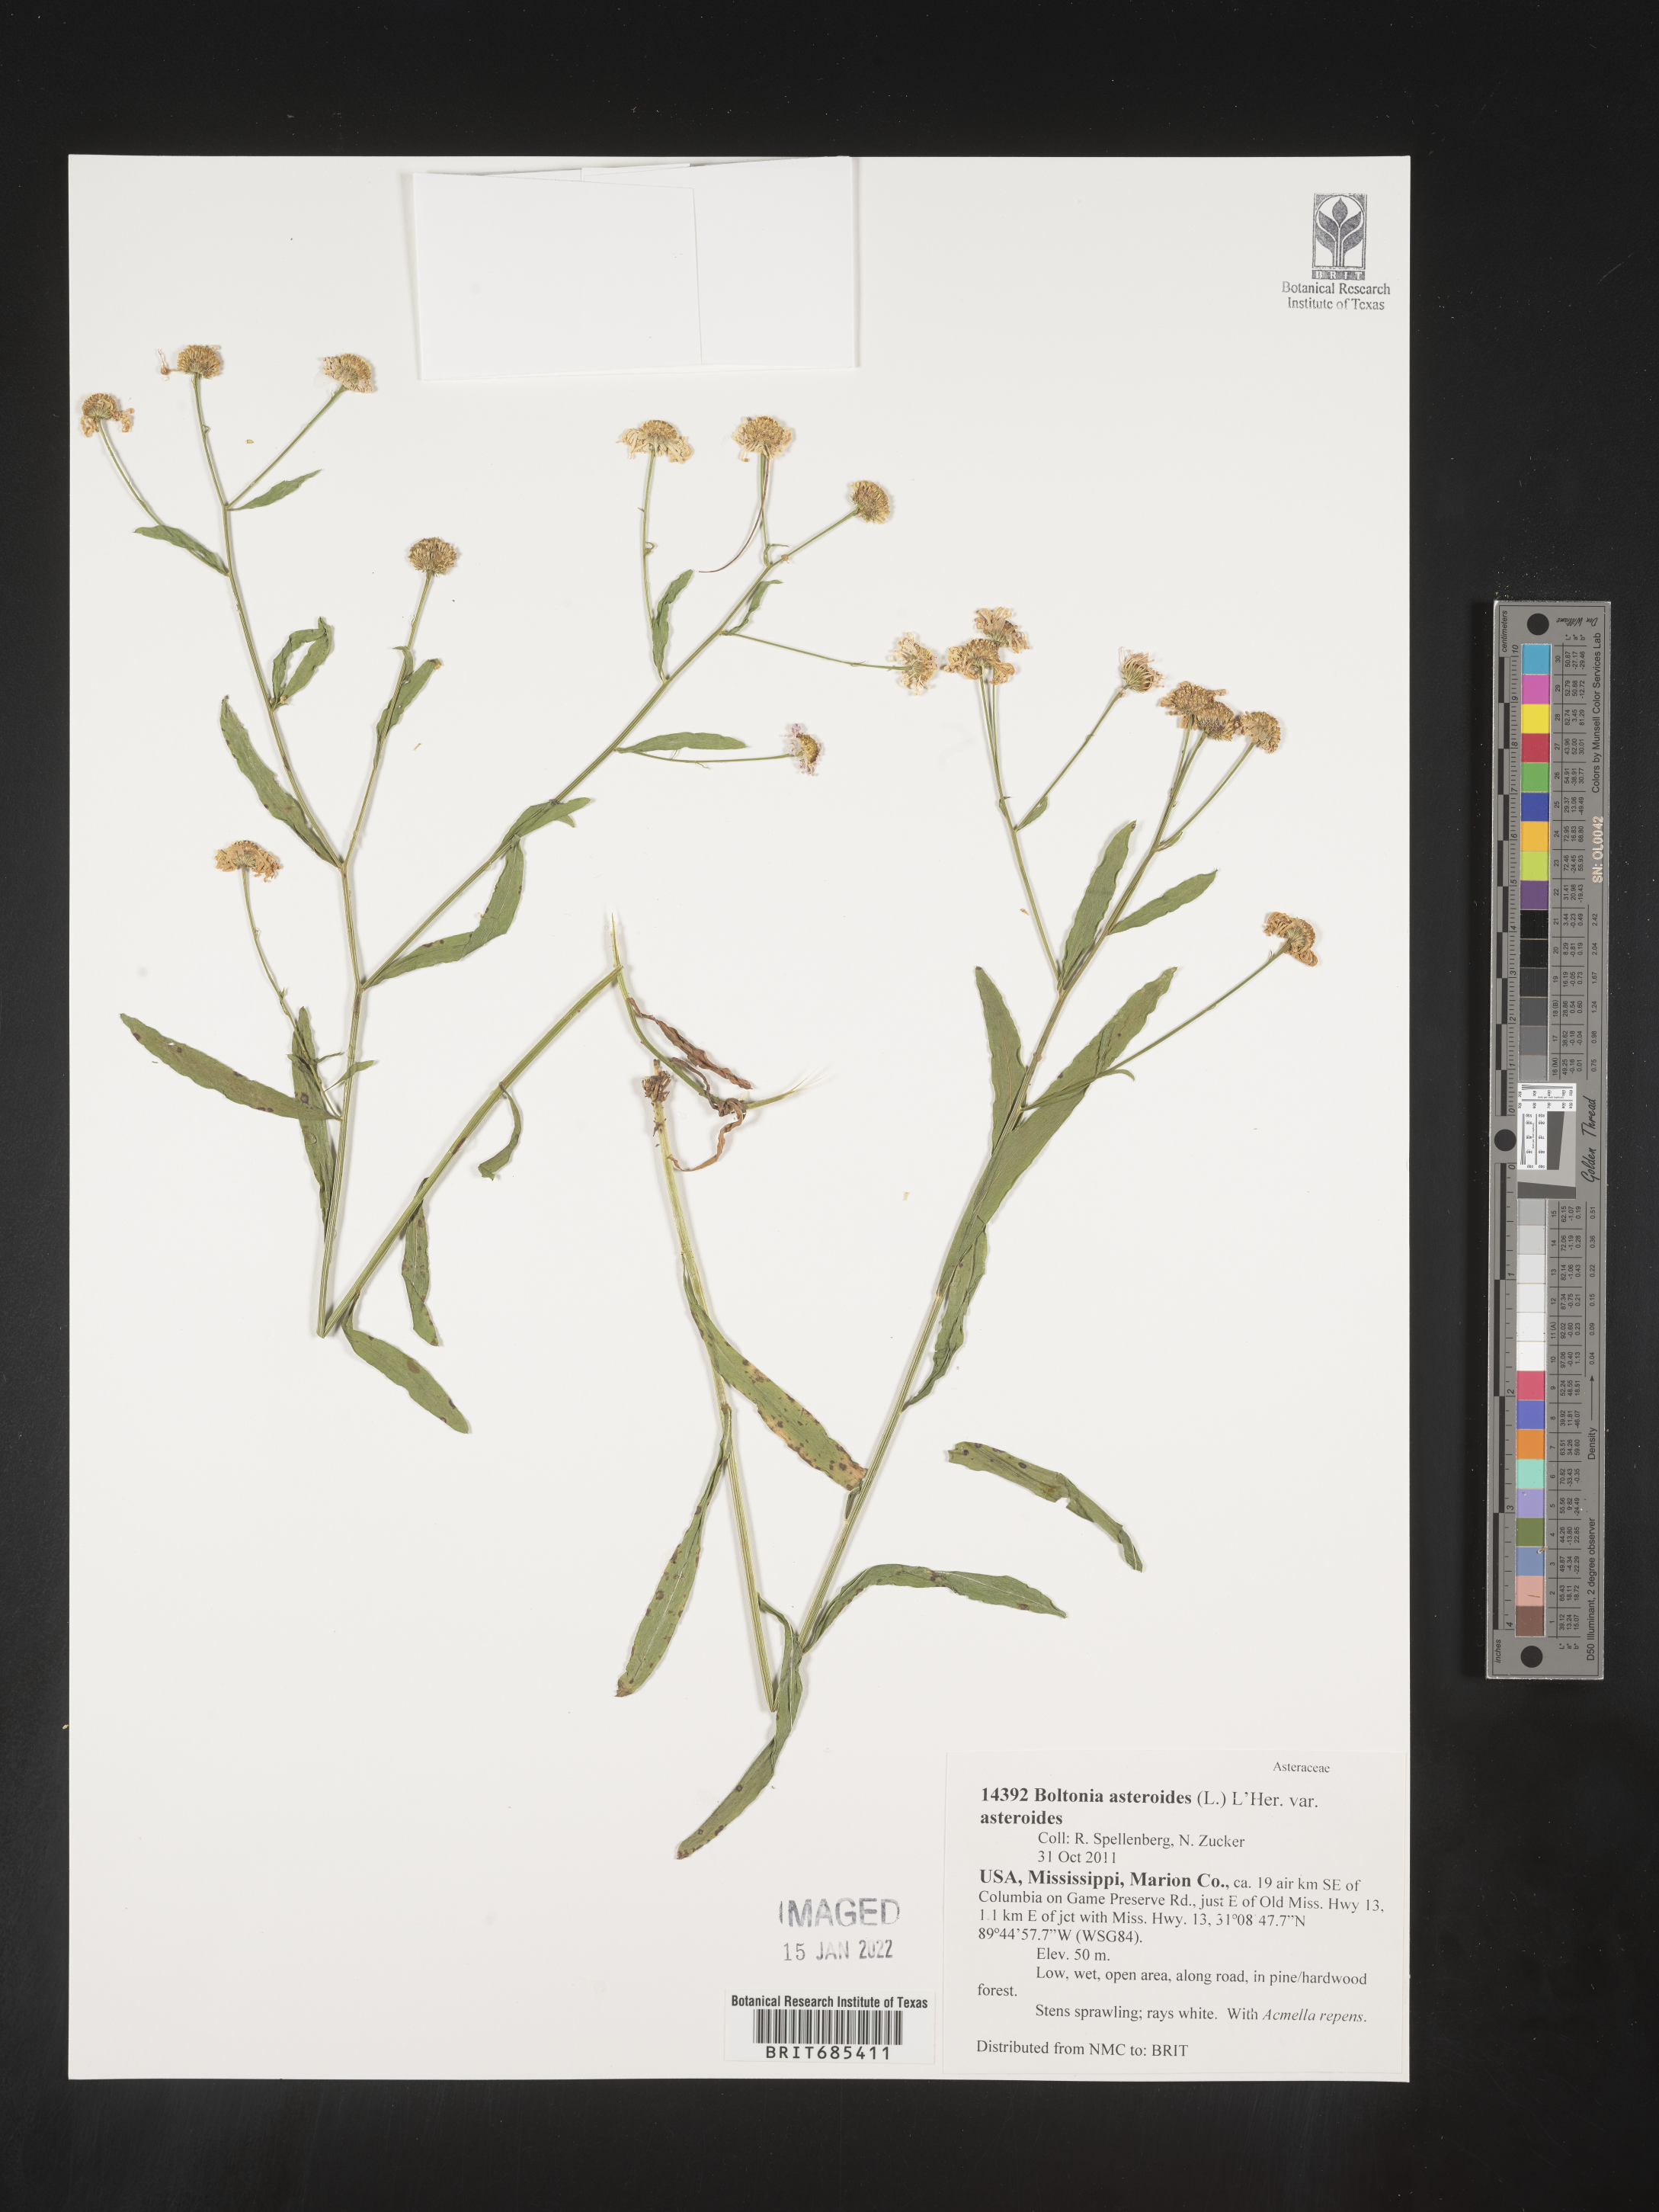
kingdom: Plantae
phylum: Tracheophyta
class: Magnoliopsida
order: Asterales
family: Asteraceae
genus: Boltonia
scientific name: Boltonia asteroides
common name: False chamomile
